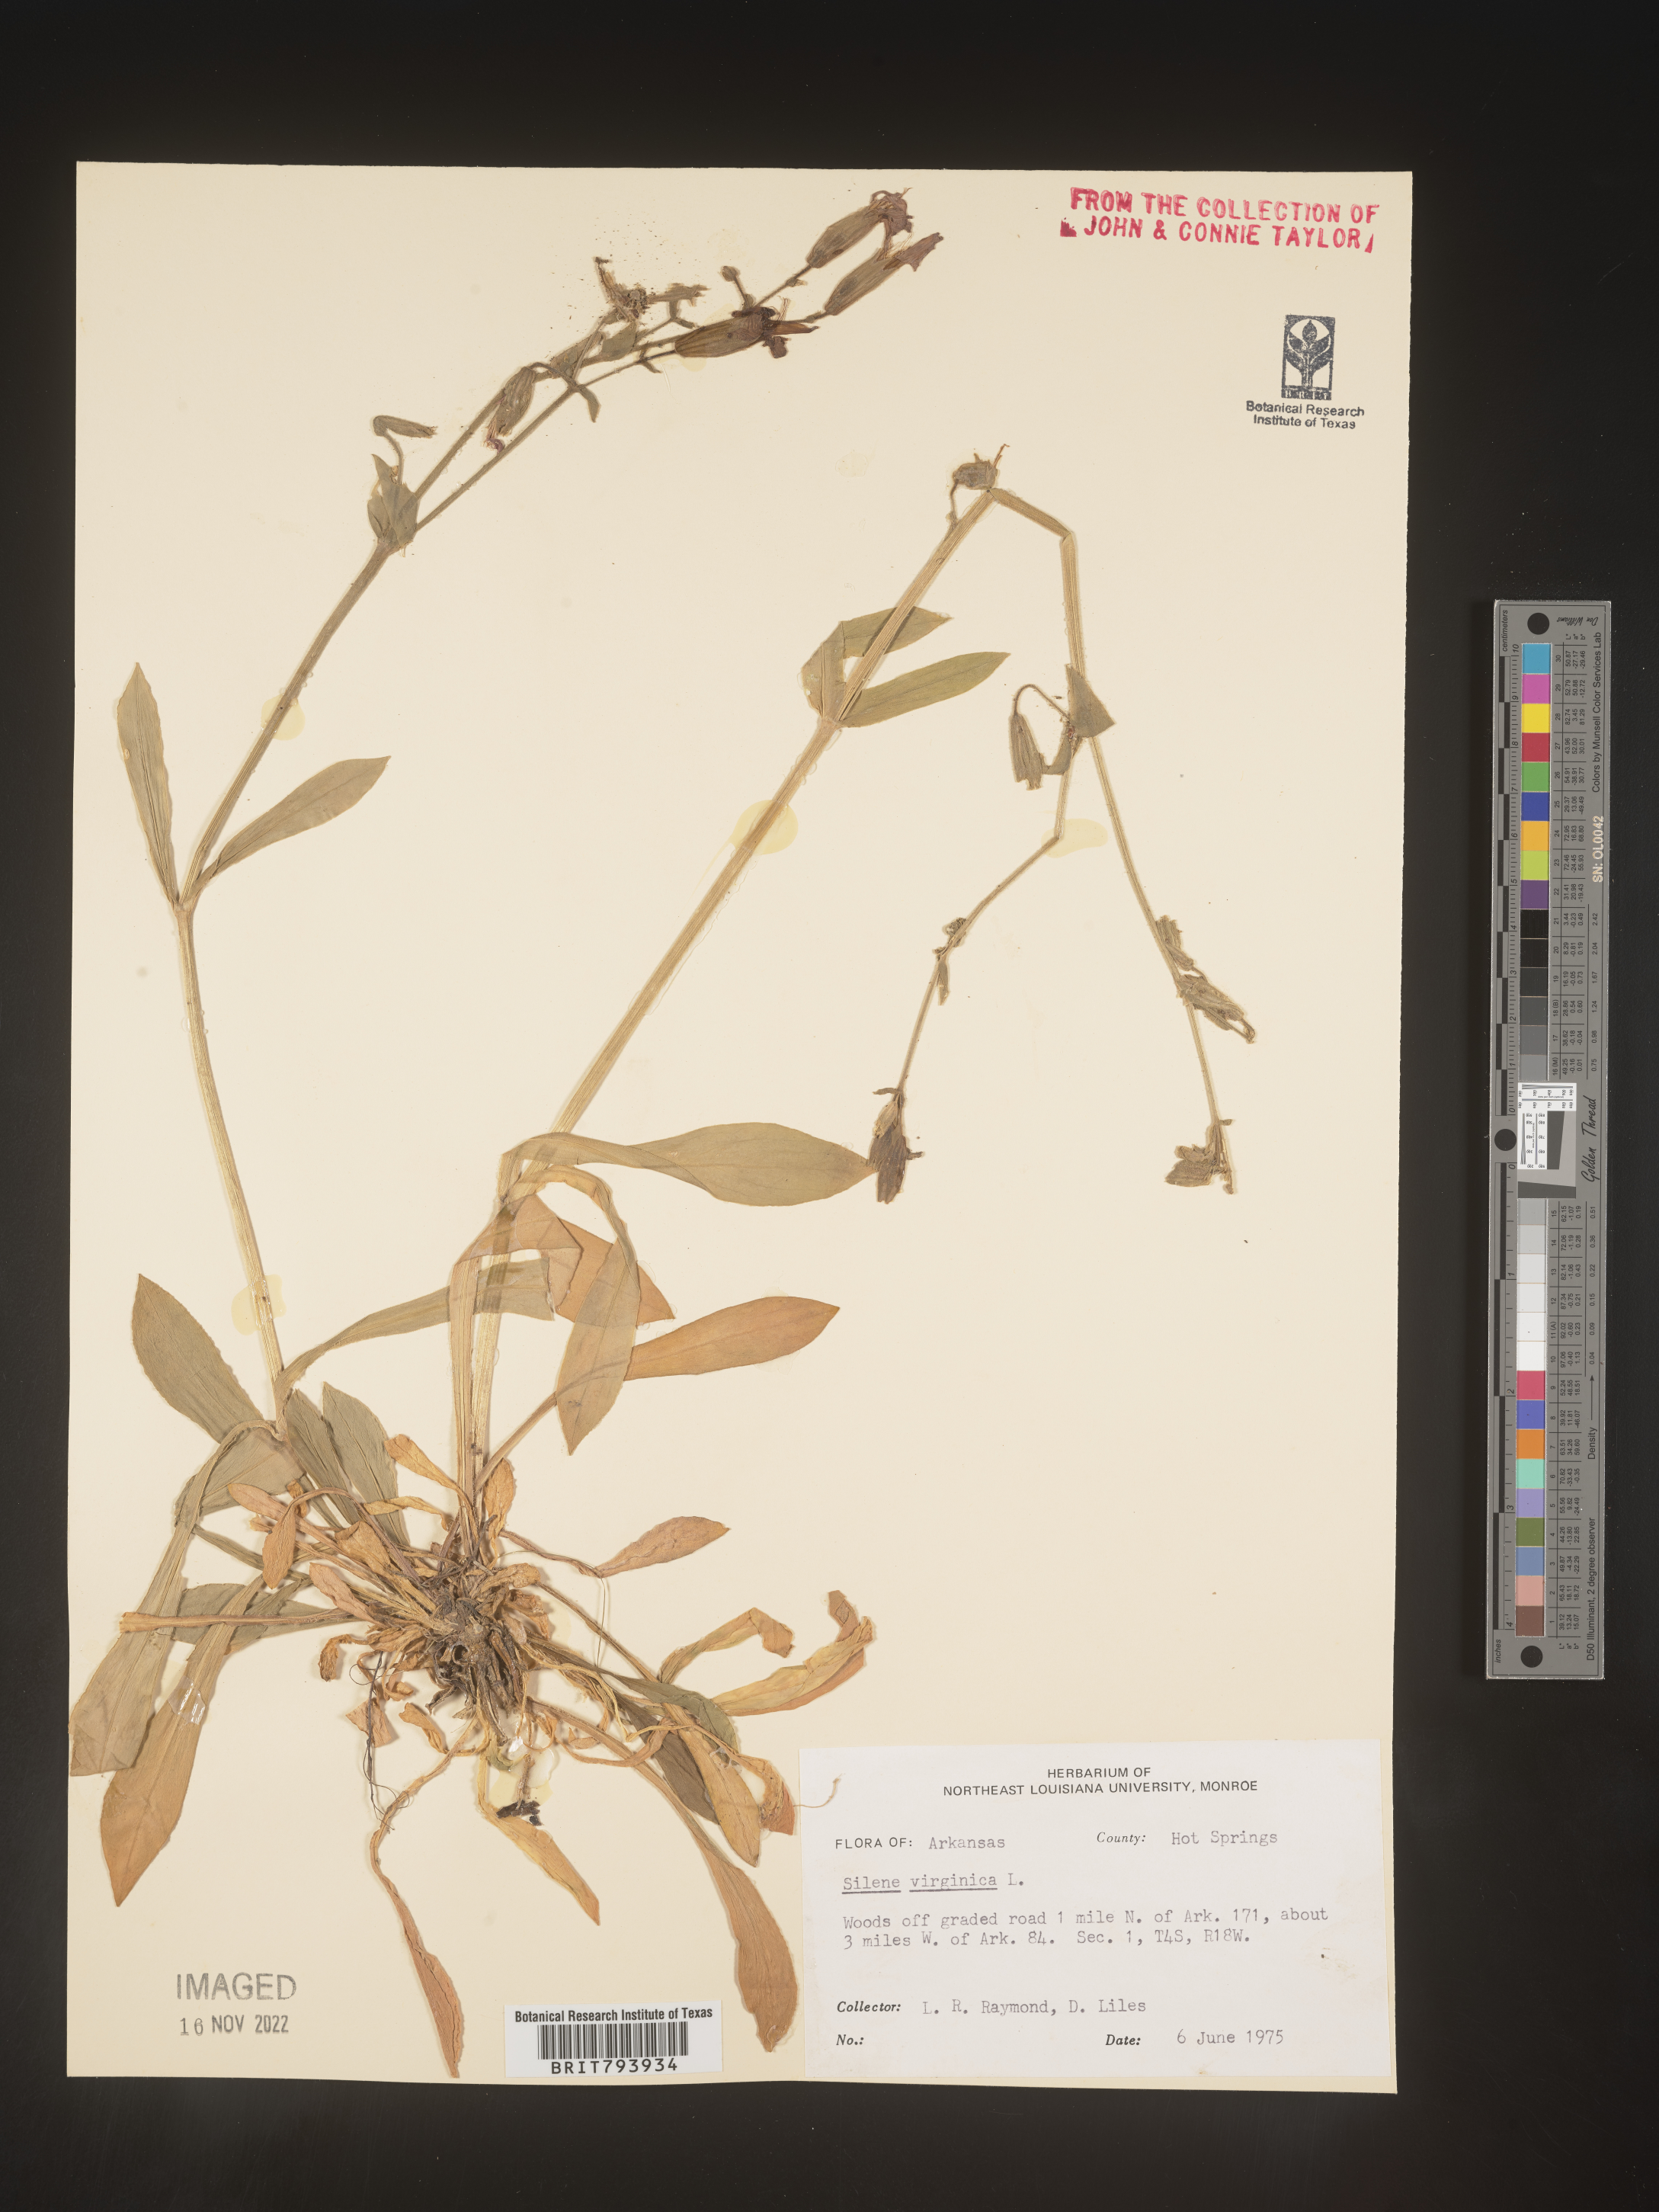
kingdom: Plantae
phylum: Tracheophyta
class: Magnoliopsida
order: Caryophyllales
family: Caryophyllaceae
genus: Silene
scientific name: Silene virginica
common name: Fire-pink
